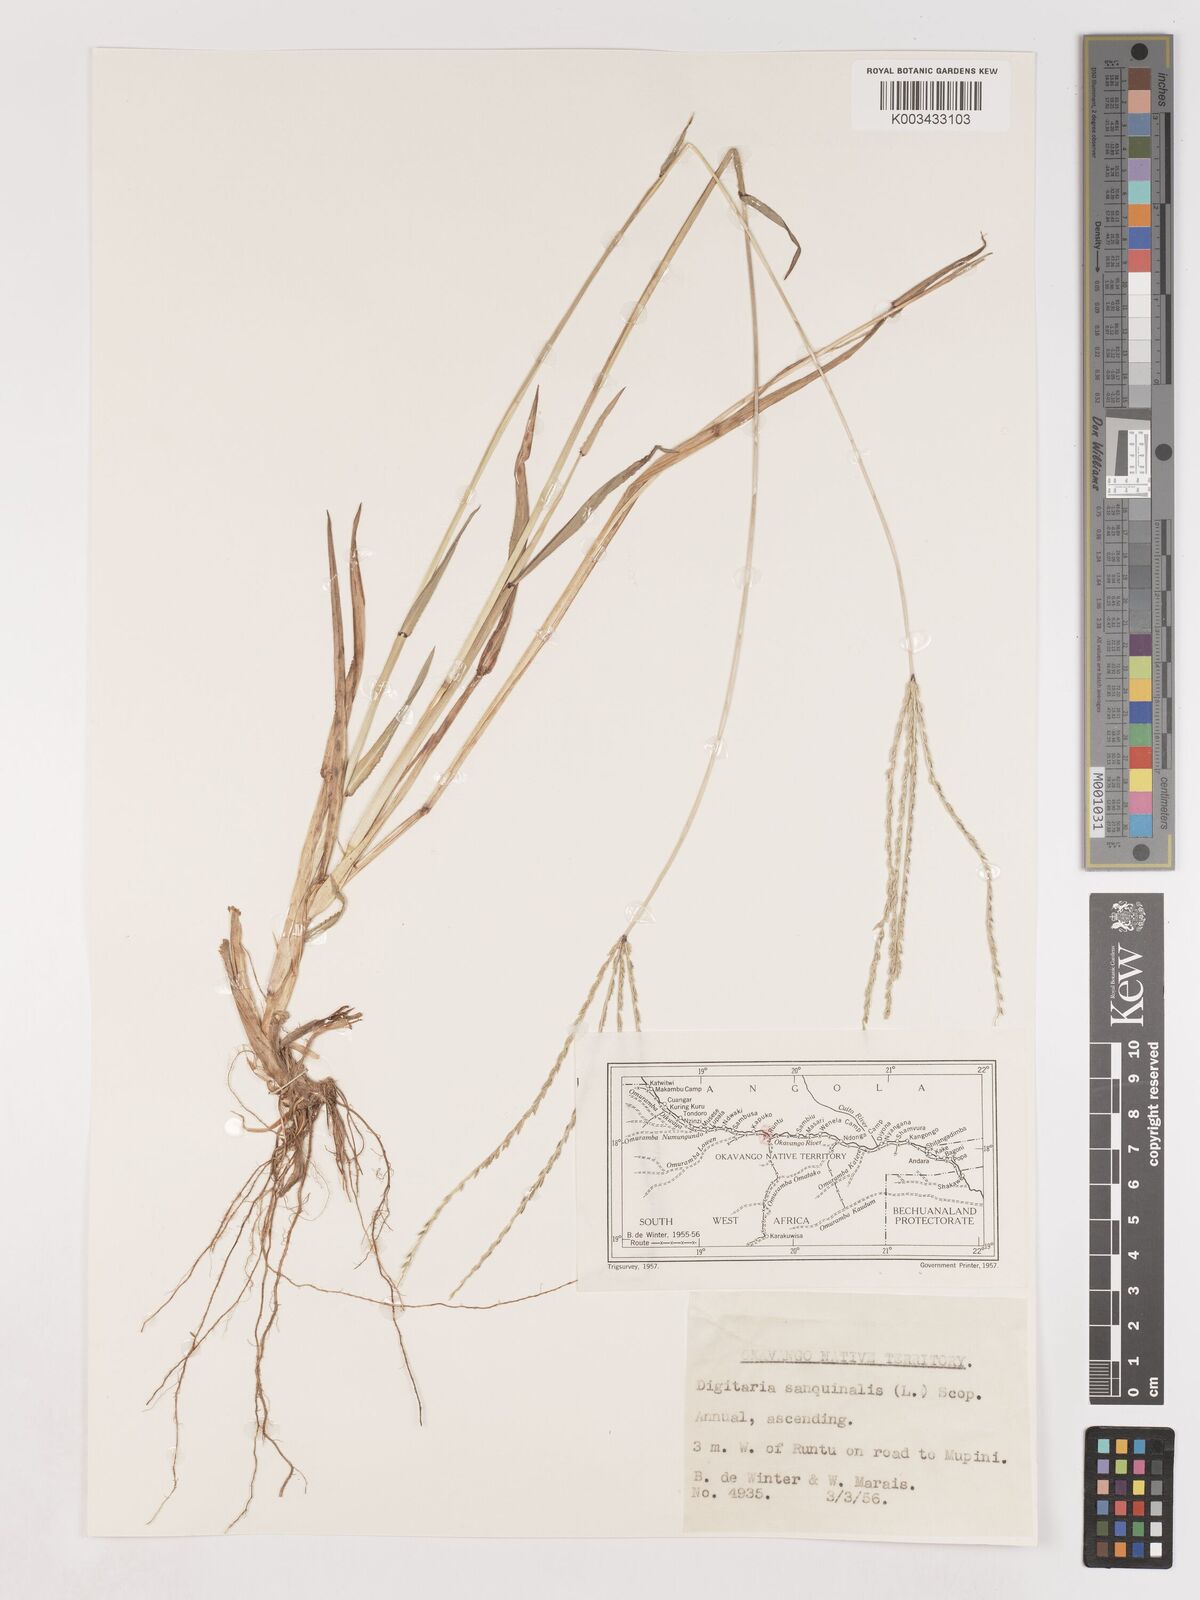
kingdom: Plantae
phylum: Tracheophyta
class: Liliopsida
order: Poales
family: Poaceae
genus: Digitaria
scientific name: Digitaria milanjiana
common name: Madagascar crabgrass
